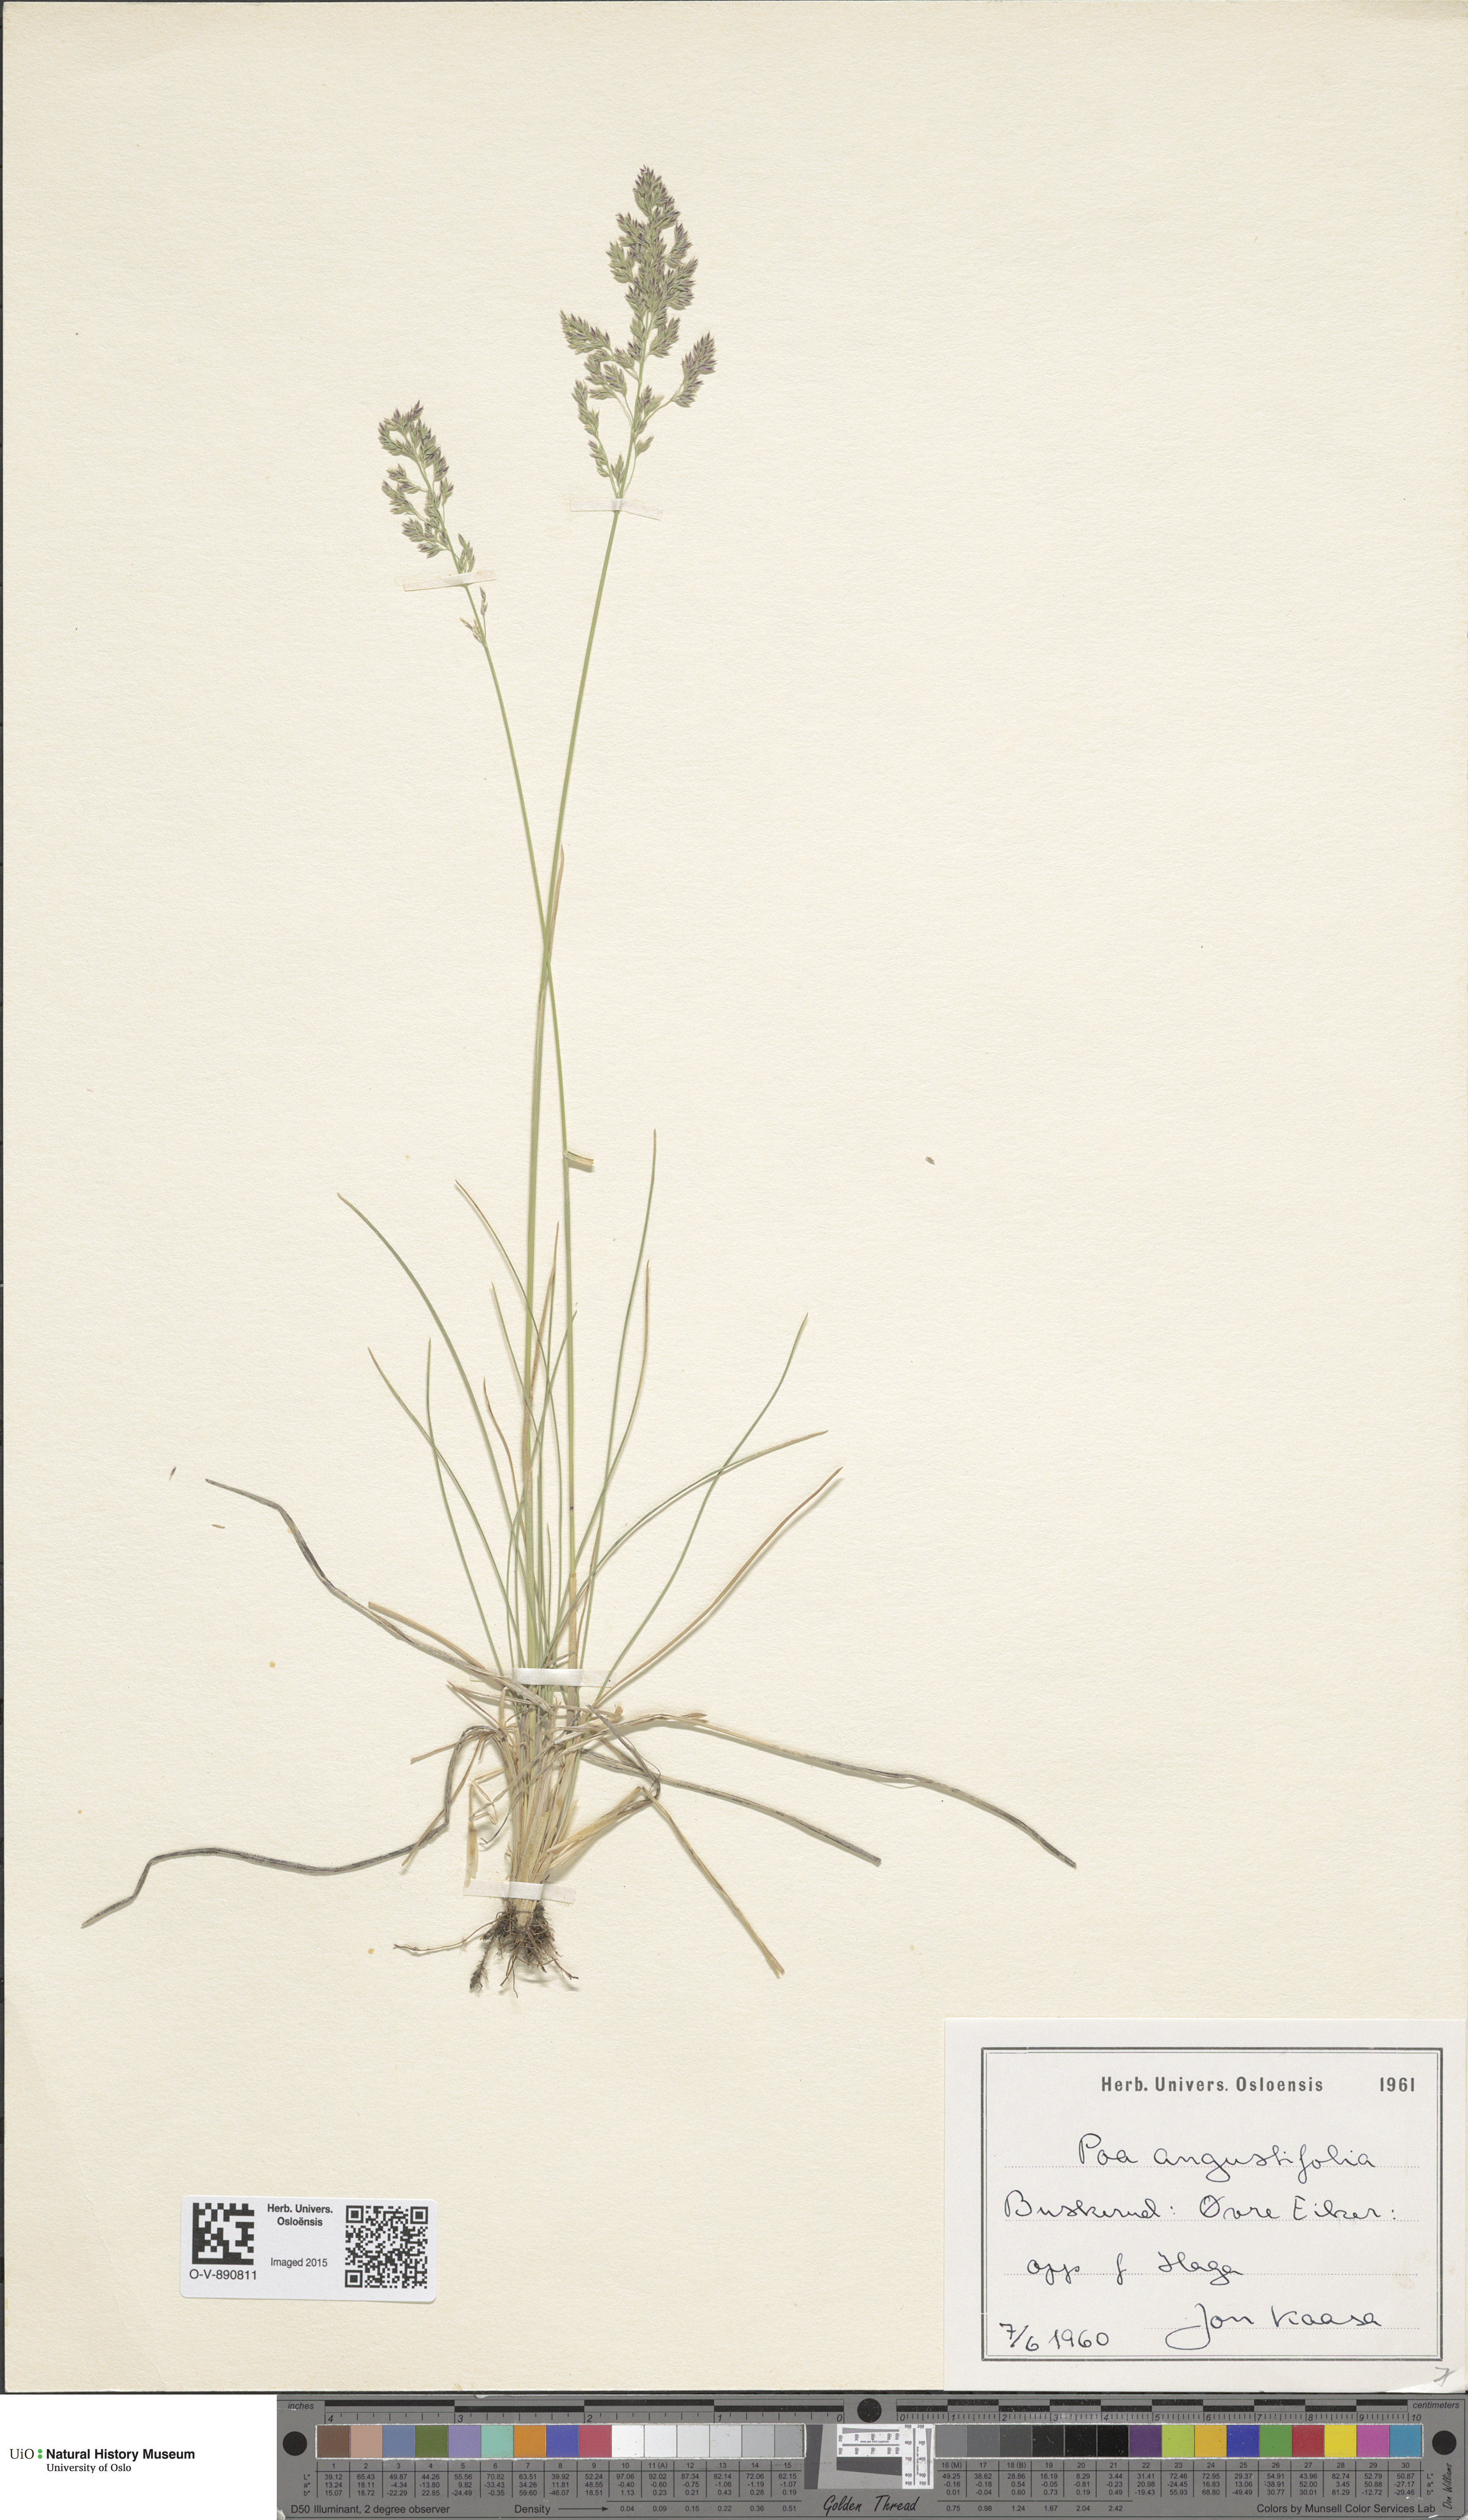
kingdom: Plantae
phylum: Tracheophyta
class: Liliopsida
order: Poales
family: Poaceae
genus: Poa
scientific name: Poa angustifolia
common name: Narrow-leaved meadow-grass
